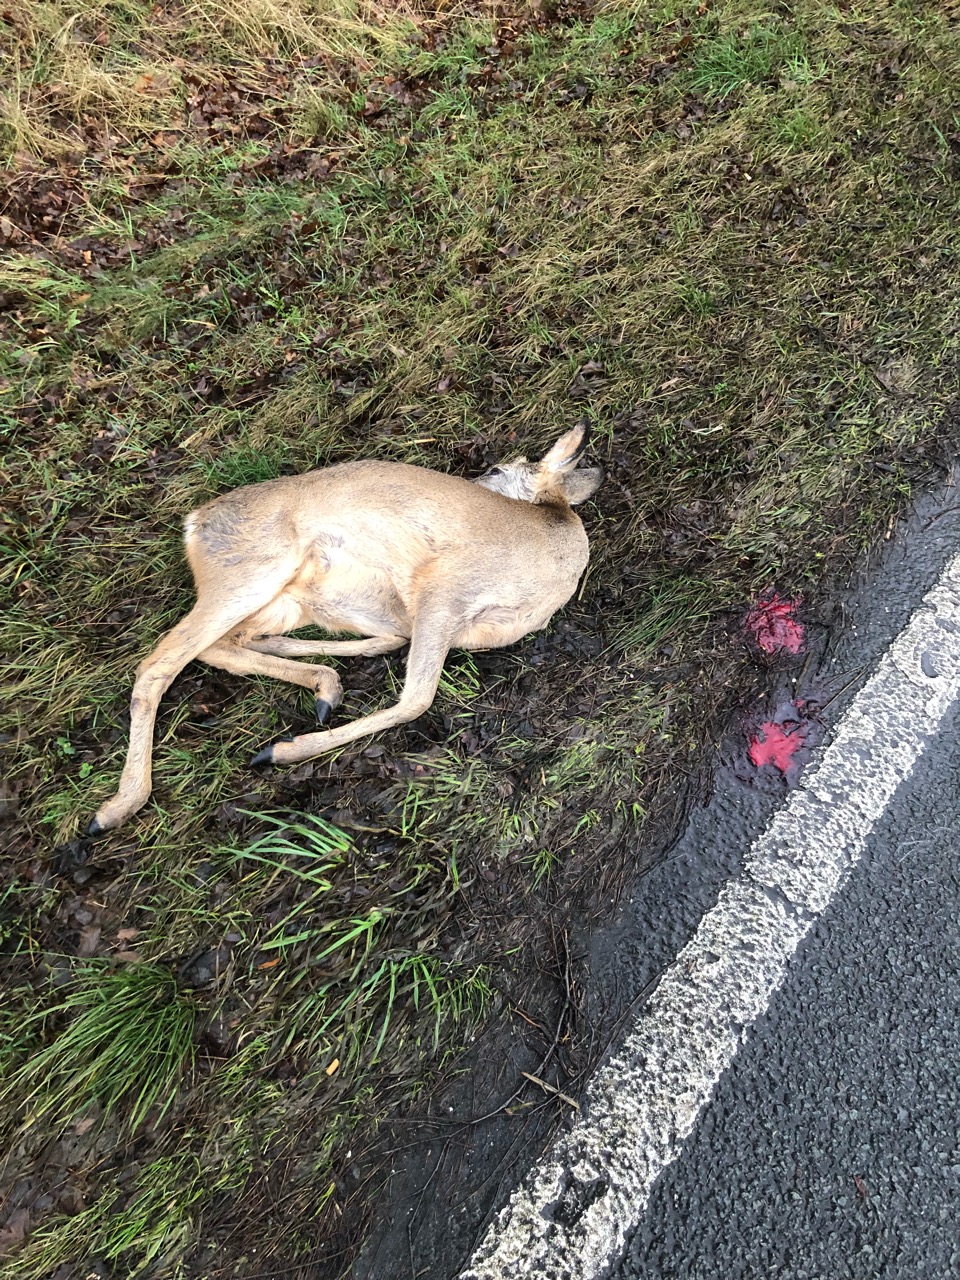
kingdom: Animalia
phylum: Chordata
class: Mammalia
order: Artiodactyla
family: Cervidae
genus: Capreolus
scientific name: Capreolus capreolus
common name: Western roe deer
